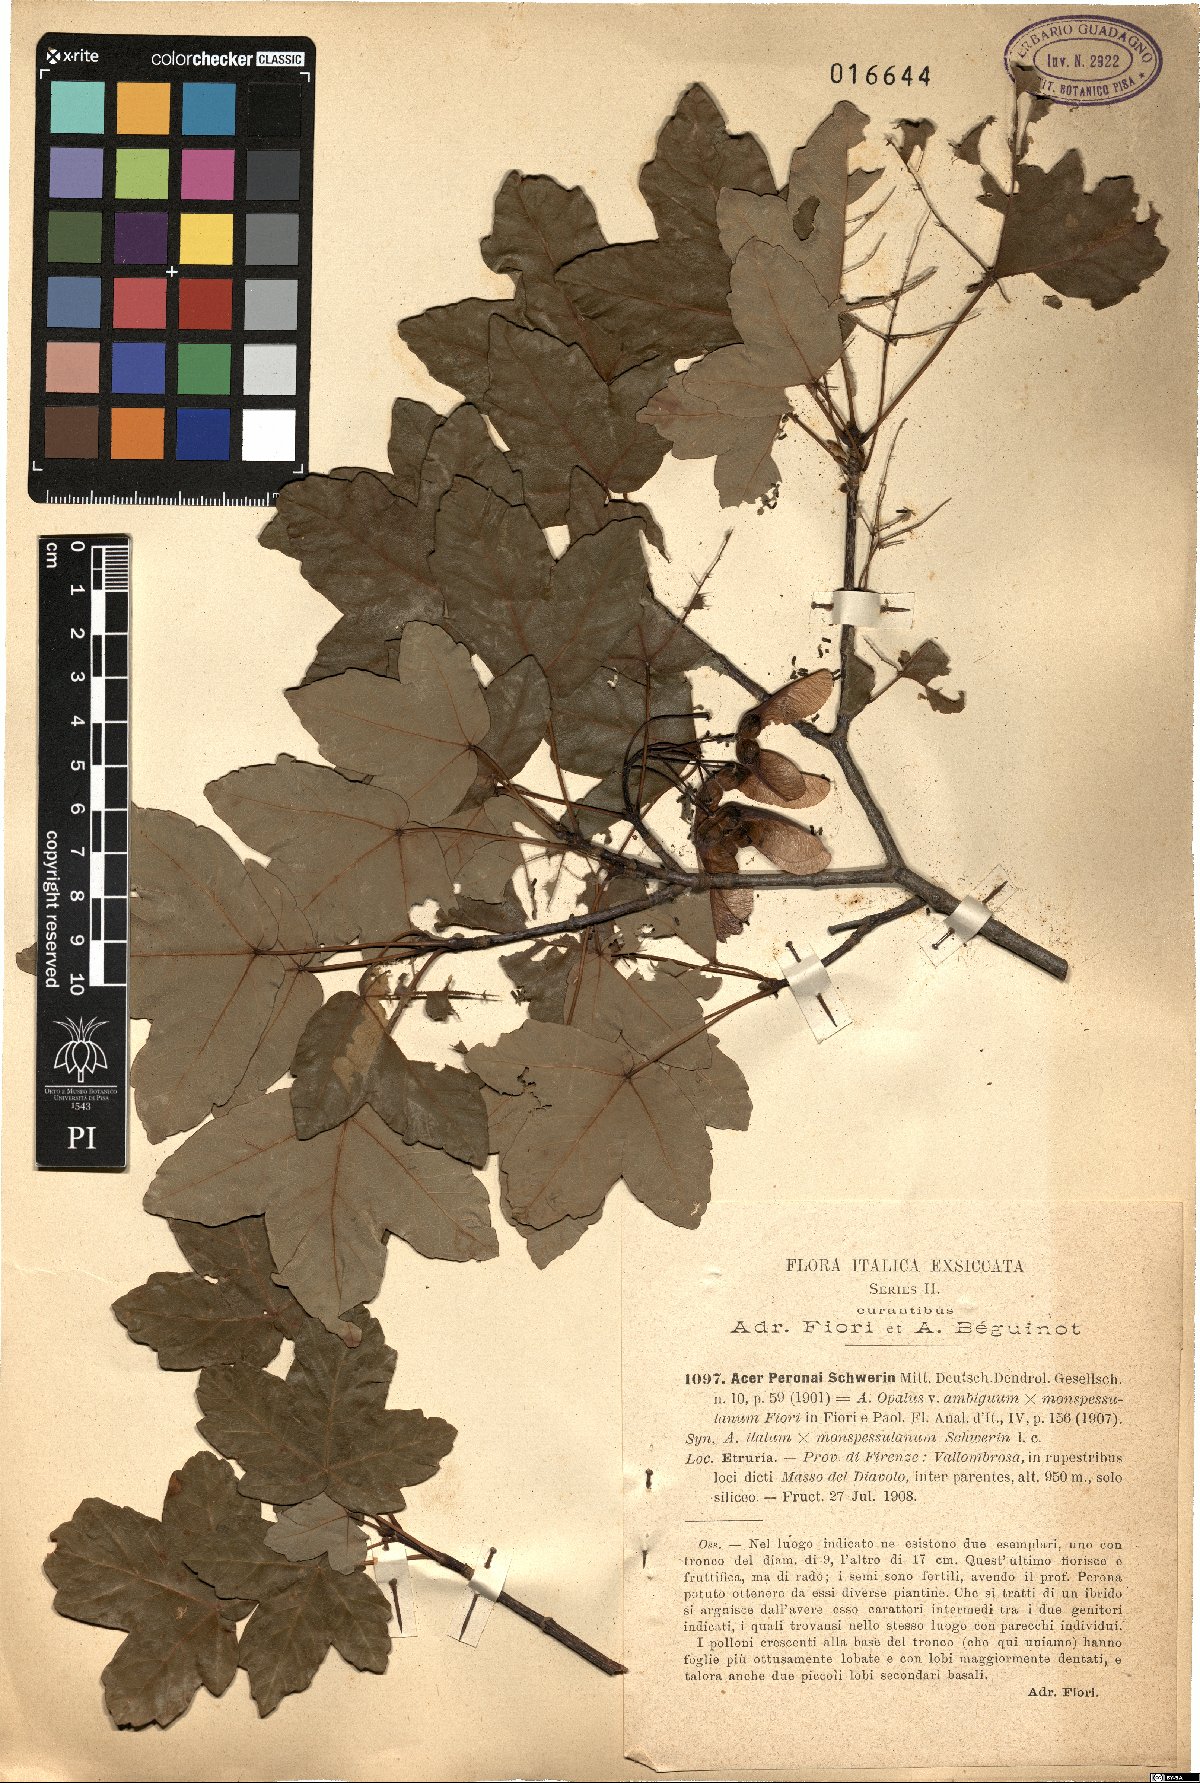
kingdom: Plantae
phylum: Tracheophyta
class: Magnoliopsida
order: Sapindales
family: Aceraceae
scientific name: Aceraceae
